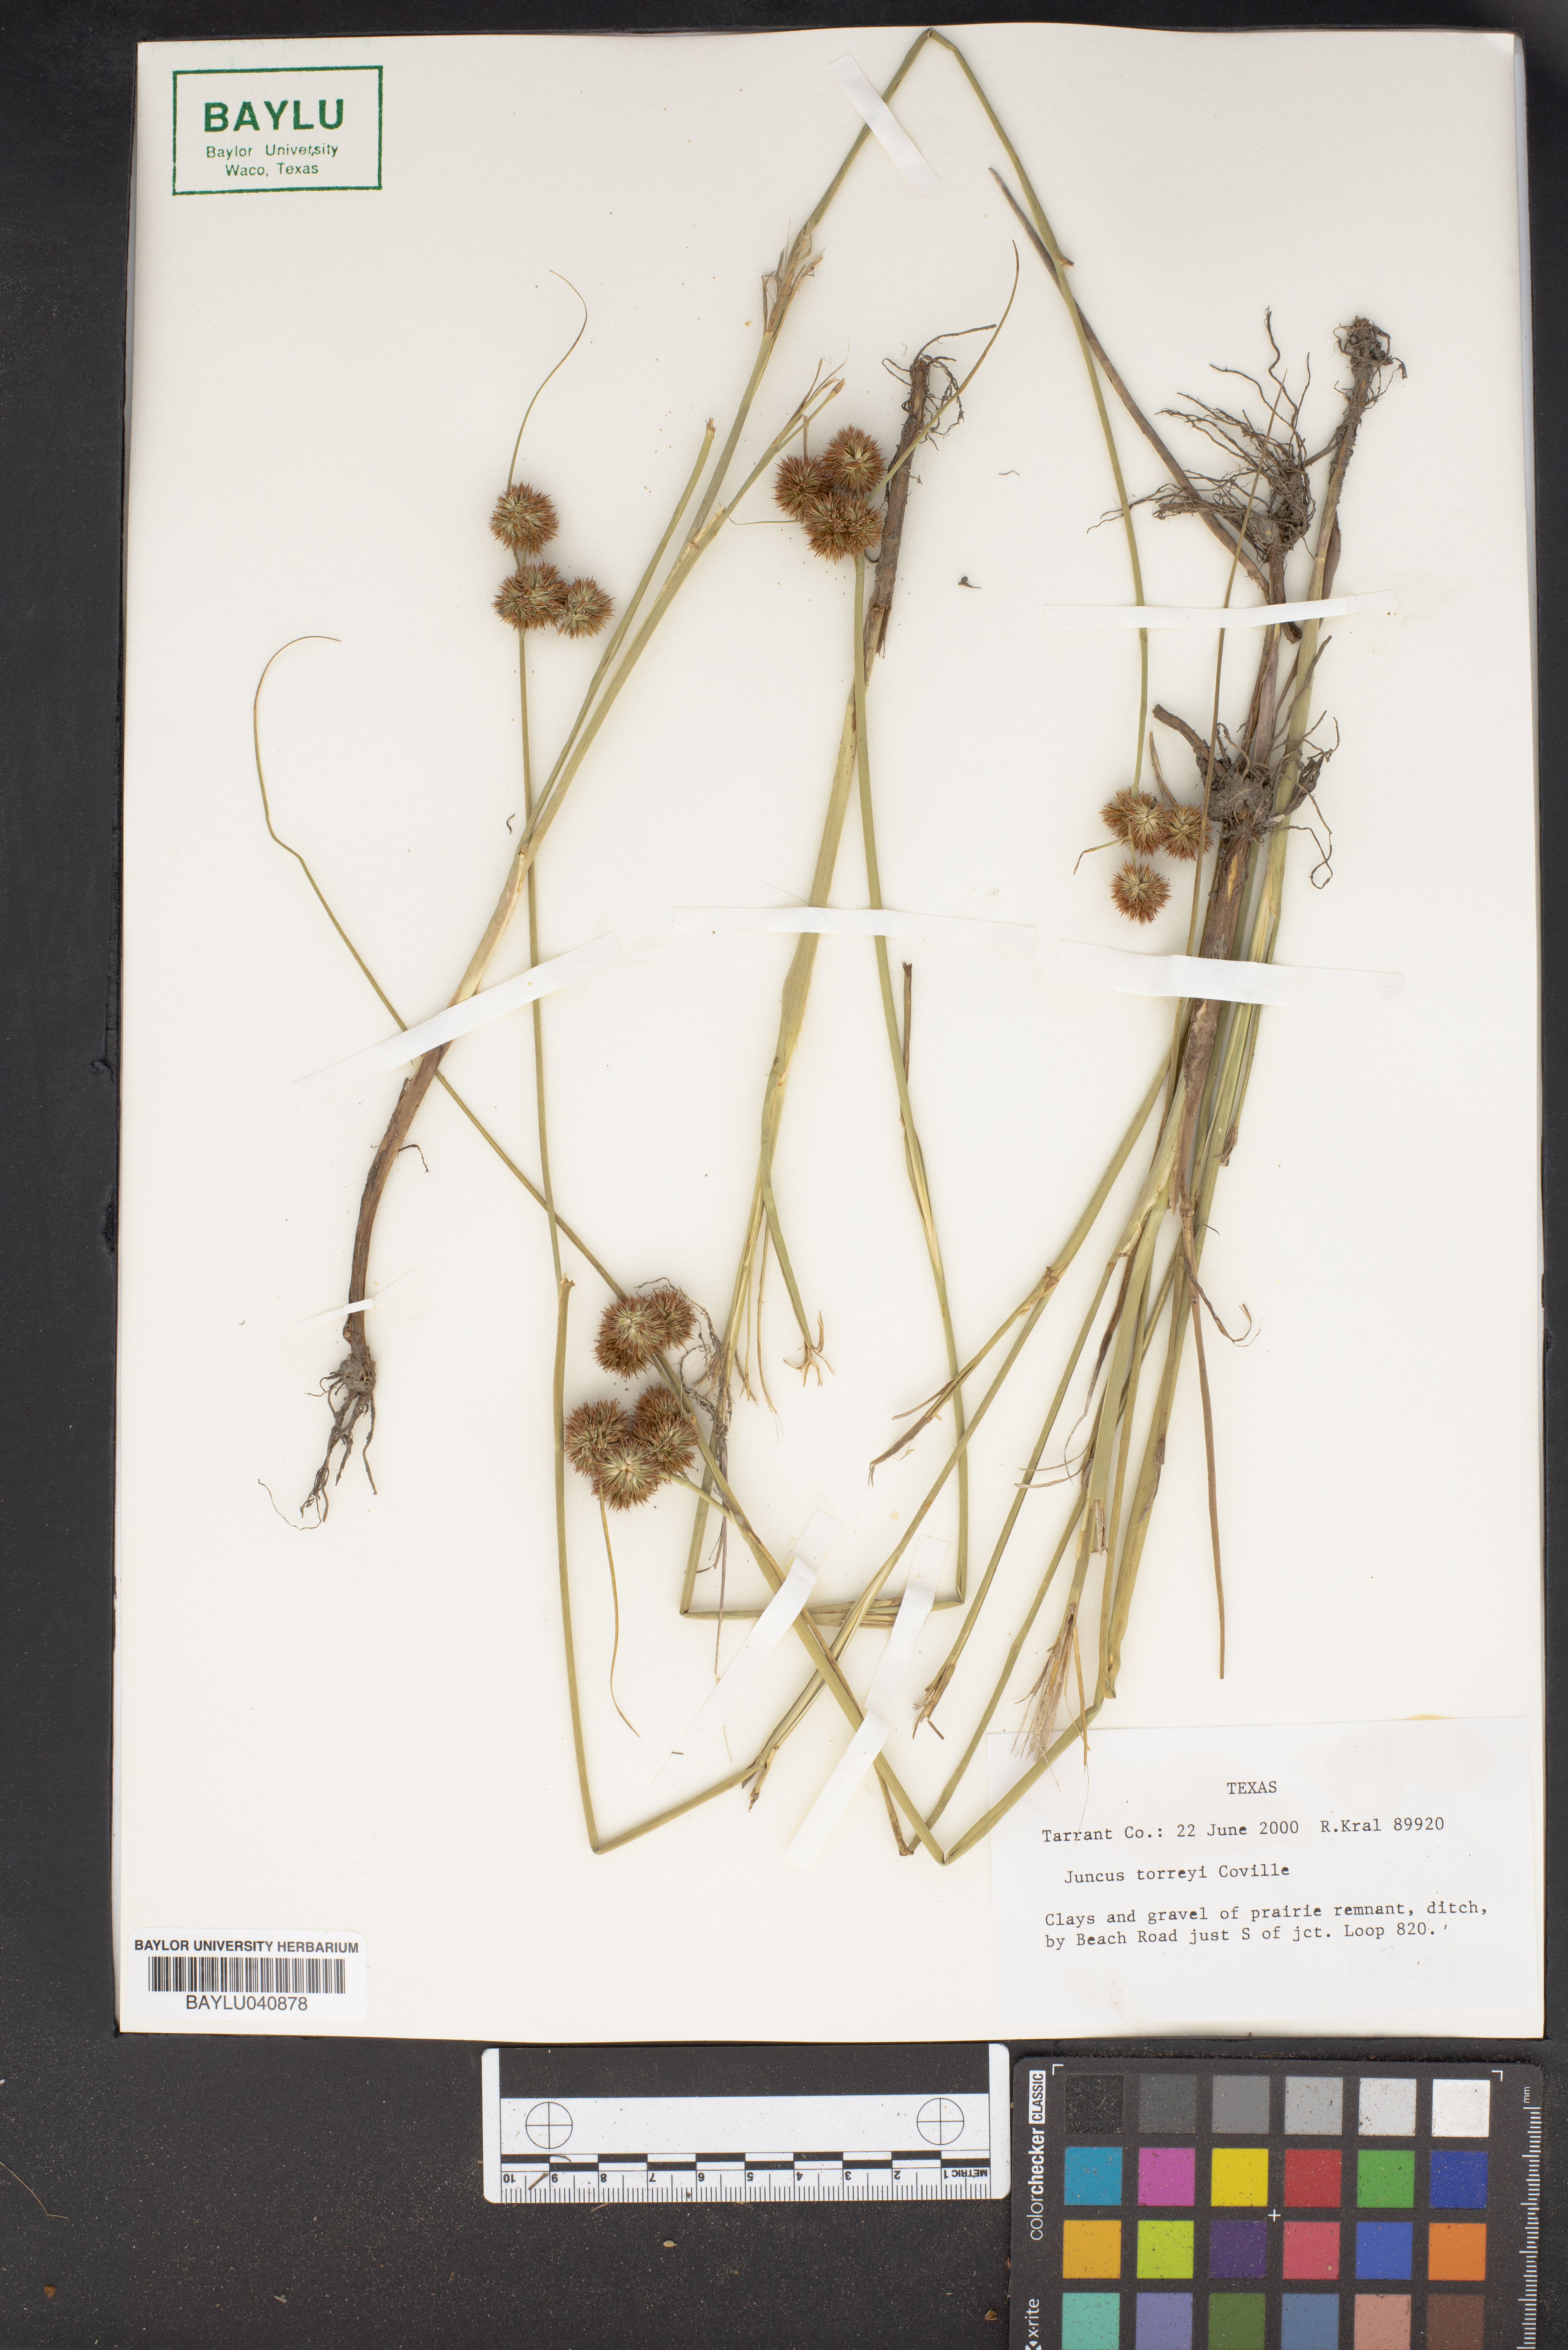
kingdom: Plantae
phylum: Tracheophyta
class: Liliopsida
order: Poales
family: Juncaceae
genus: Juncus
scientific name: Juncus torreyi
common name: Torrey's rush
